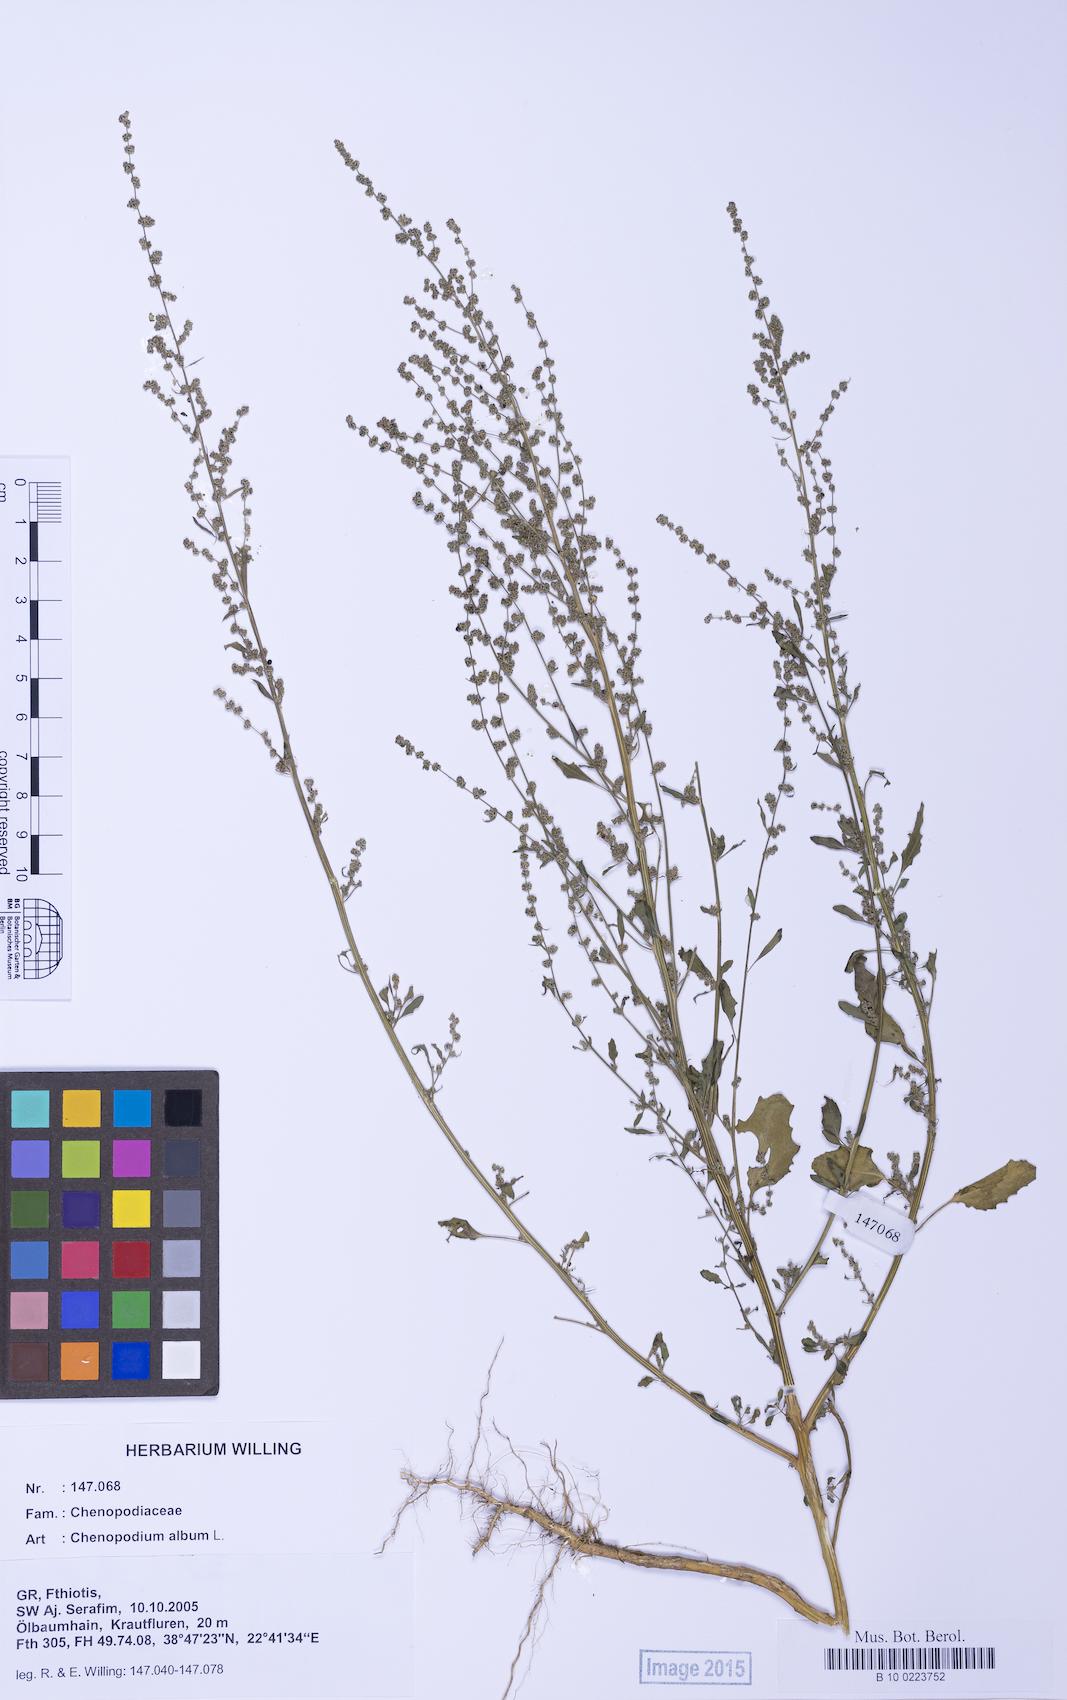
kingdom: Plantae
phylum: Tracheophyta
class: Magnoliopsida
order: Caryophyllales
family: Amaranthaceae
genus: Chenopodium
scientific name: Chenopodium album
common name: Fat-hen
